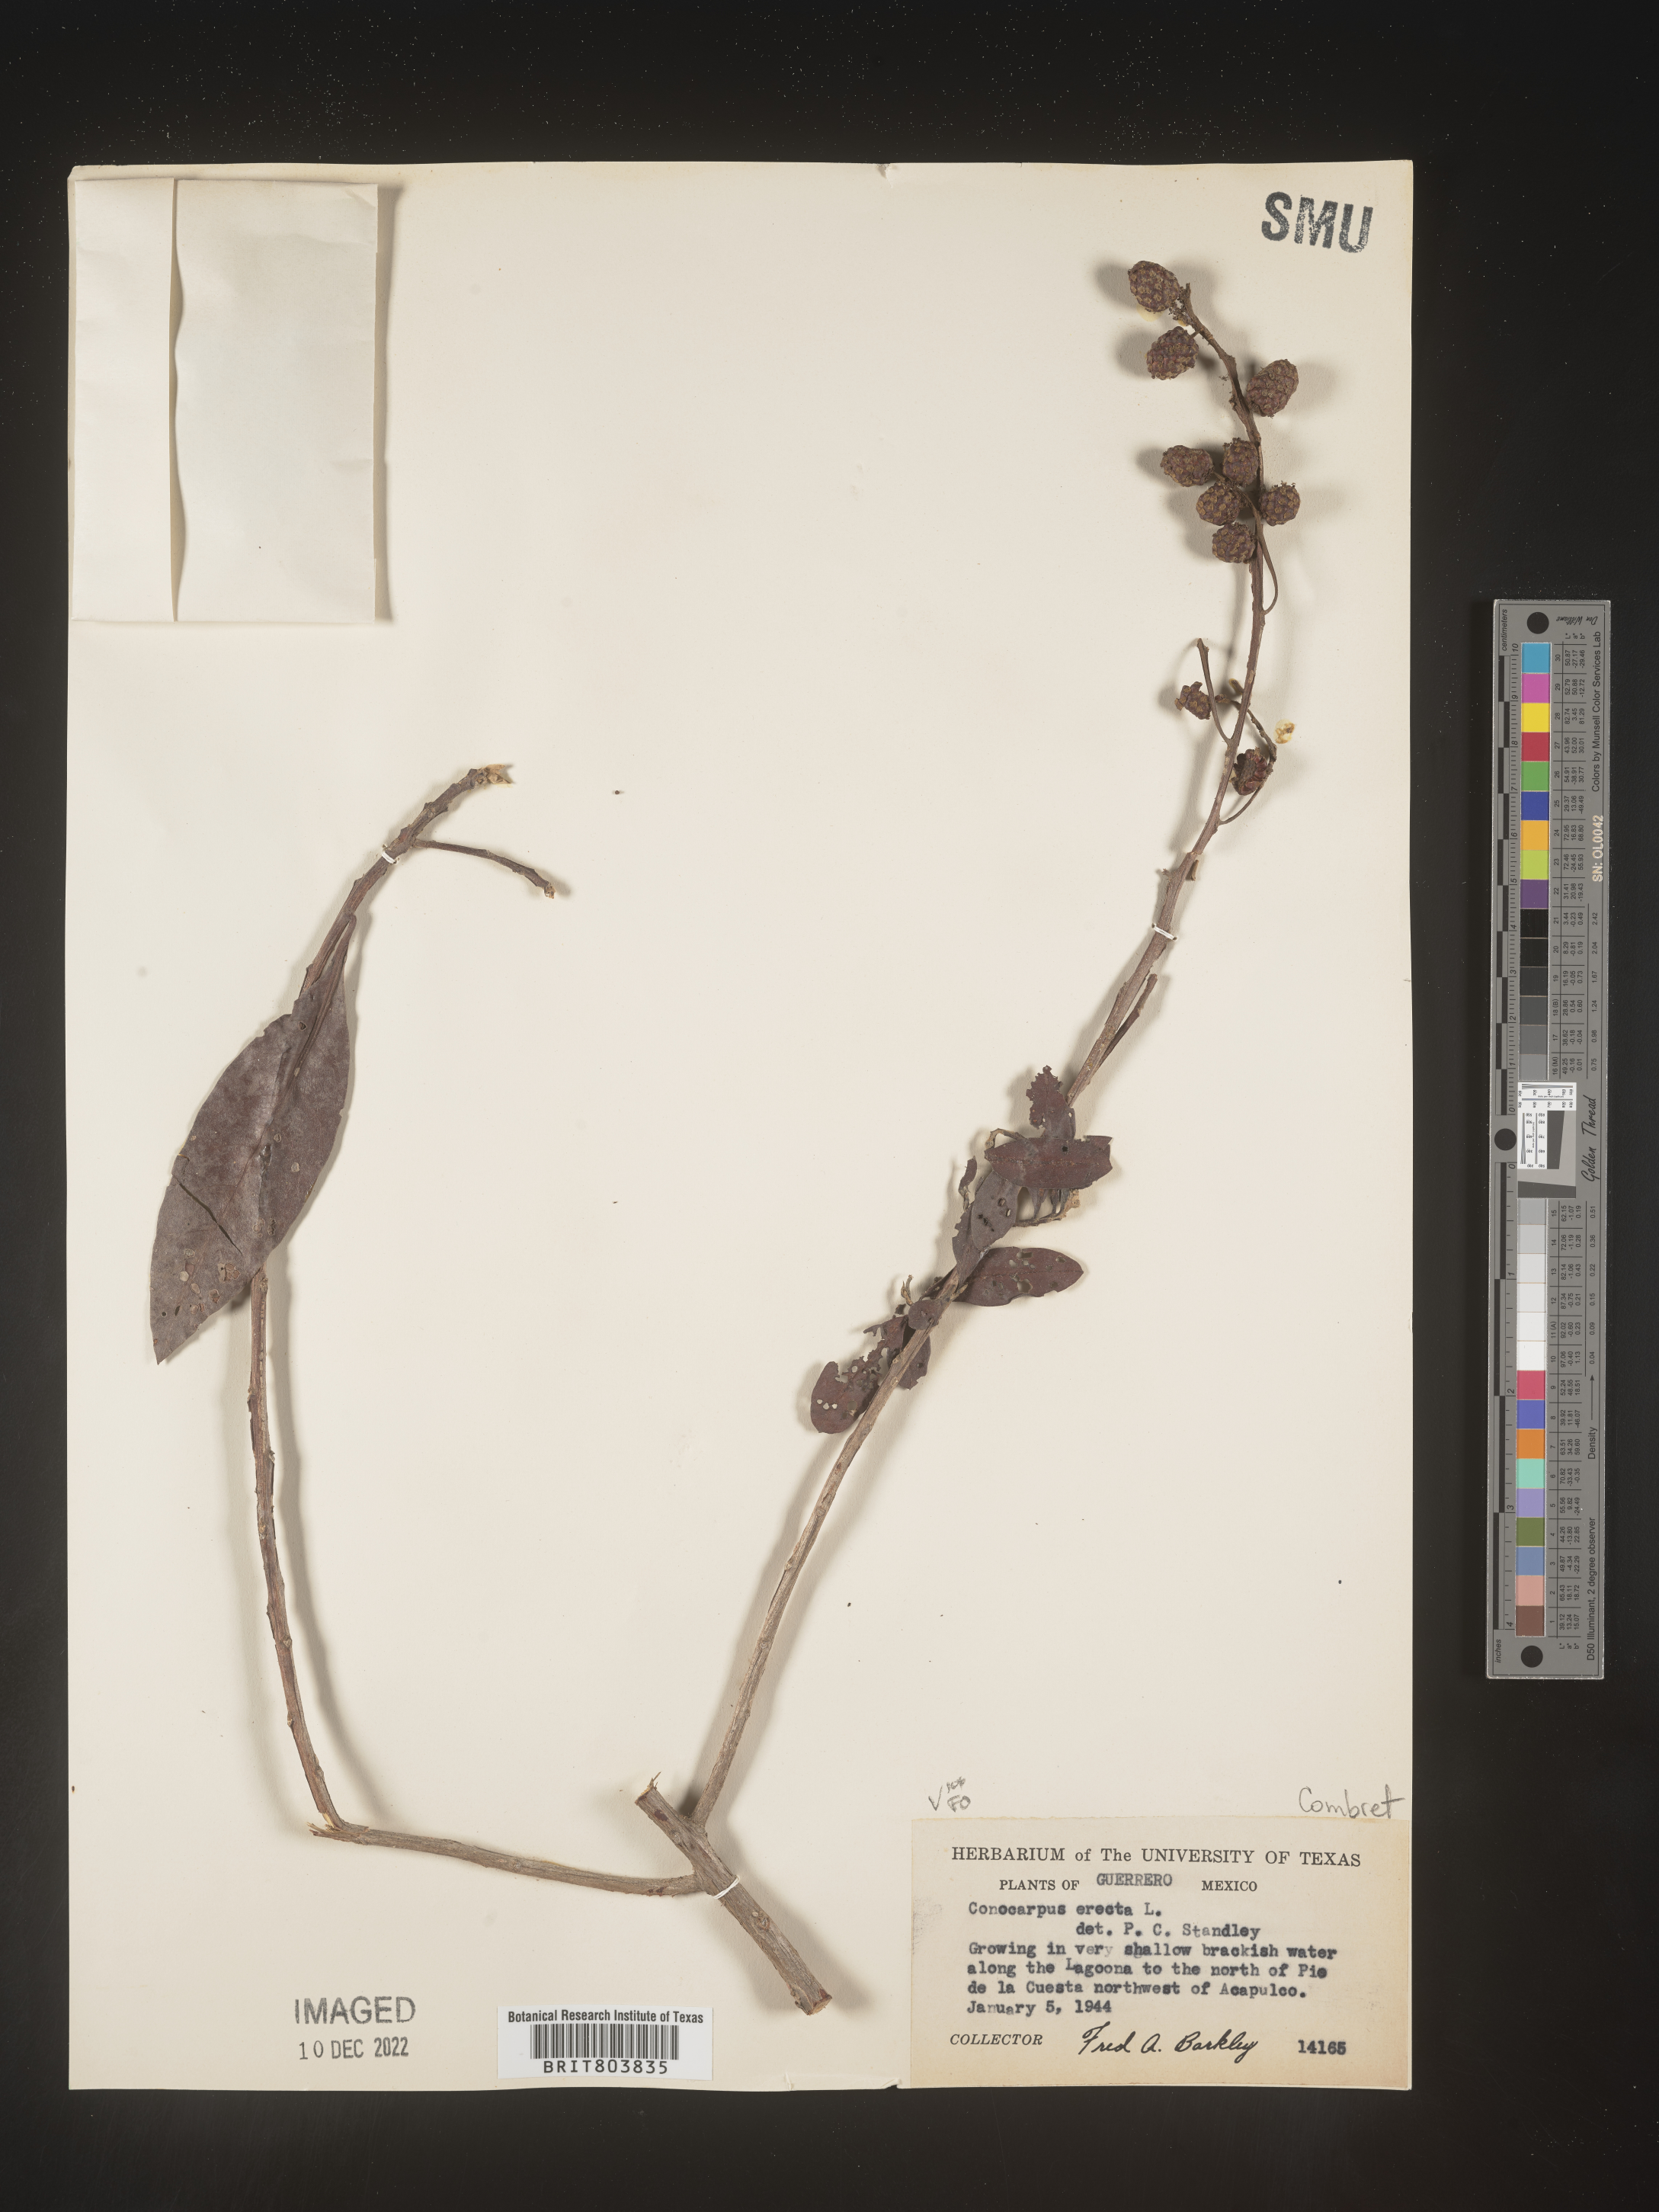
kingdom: Plantae
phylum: Tracheophyta
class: Magnoliopsida
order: Myrtales
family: Combretaceae
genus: Conocarpus
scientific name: Conocarpus
